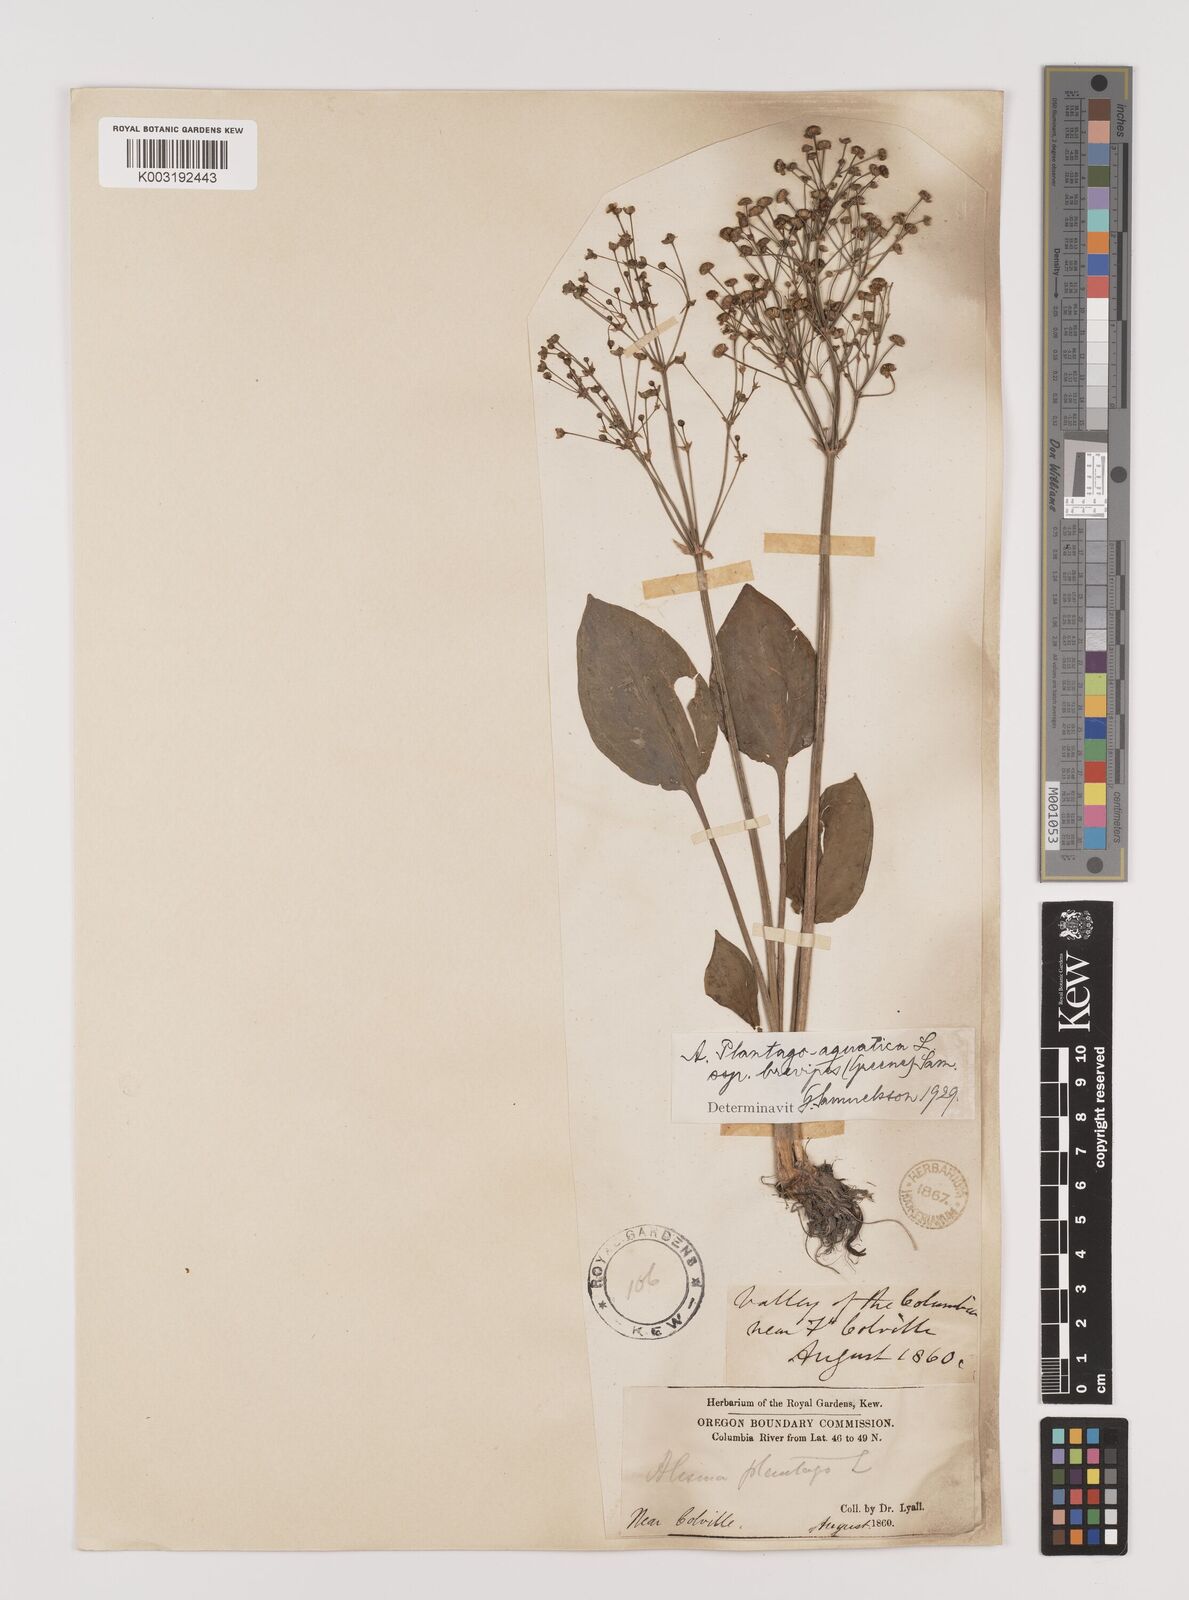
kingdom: Plantae
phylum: Tracheophyta
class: Liliopsida
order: Alismatales
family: Alismataceae
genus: Alisma
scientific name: Alisma triviale
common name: Northern water-plantain
